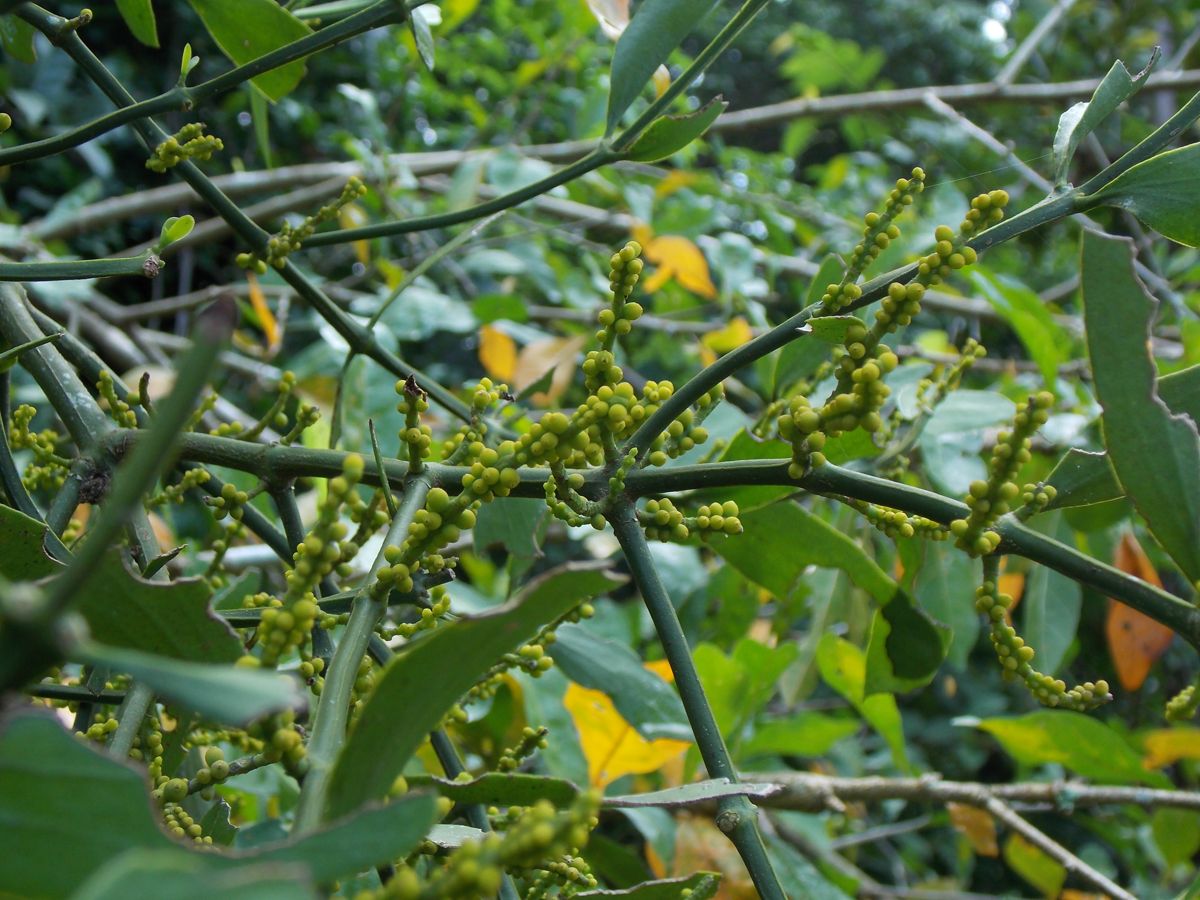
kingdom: Plantae
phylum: Tracheophyta
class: Magnoliopsida
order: Santalales
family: Viscaceae
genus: Phoradendron
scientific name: Phoradendron quadrangulare
